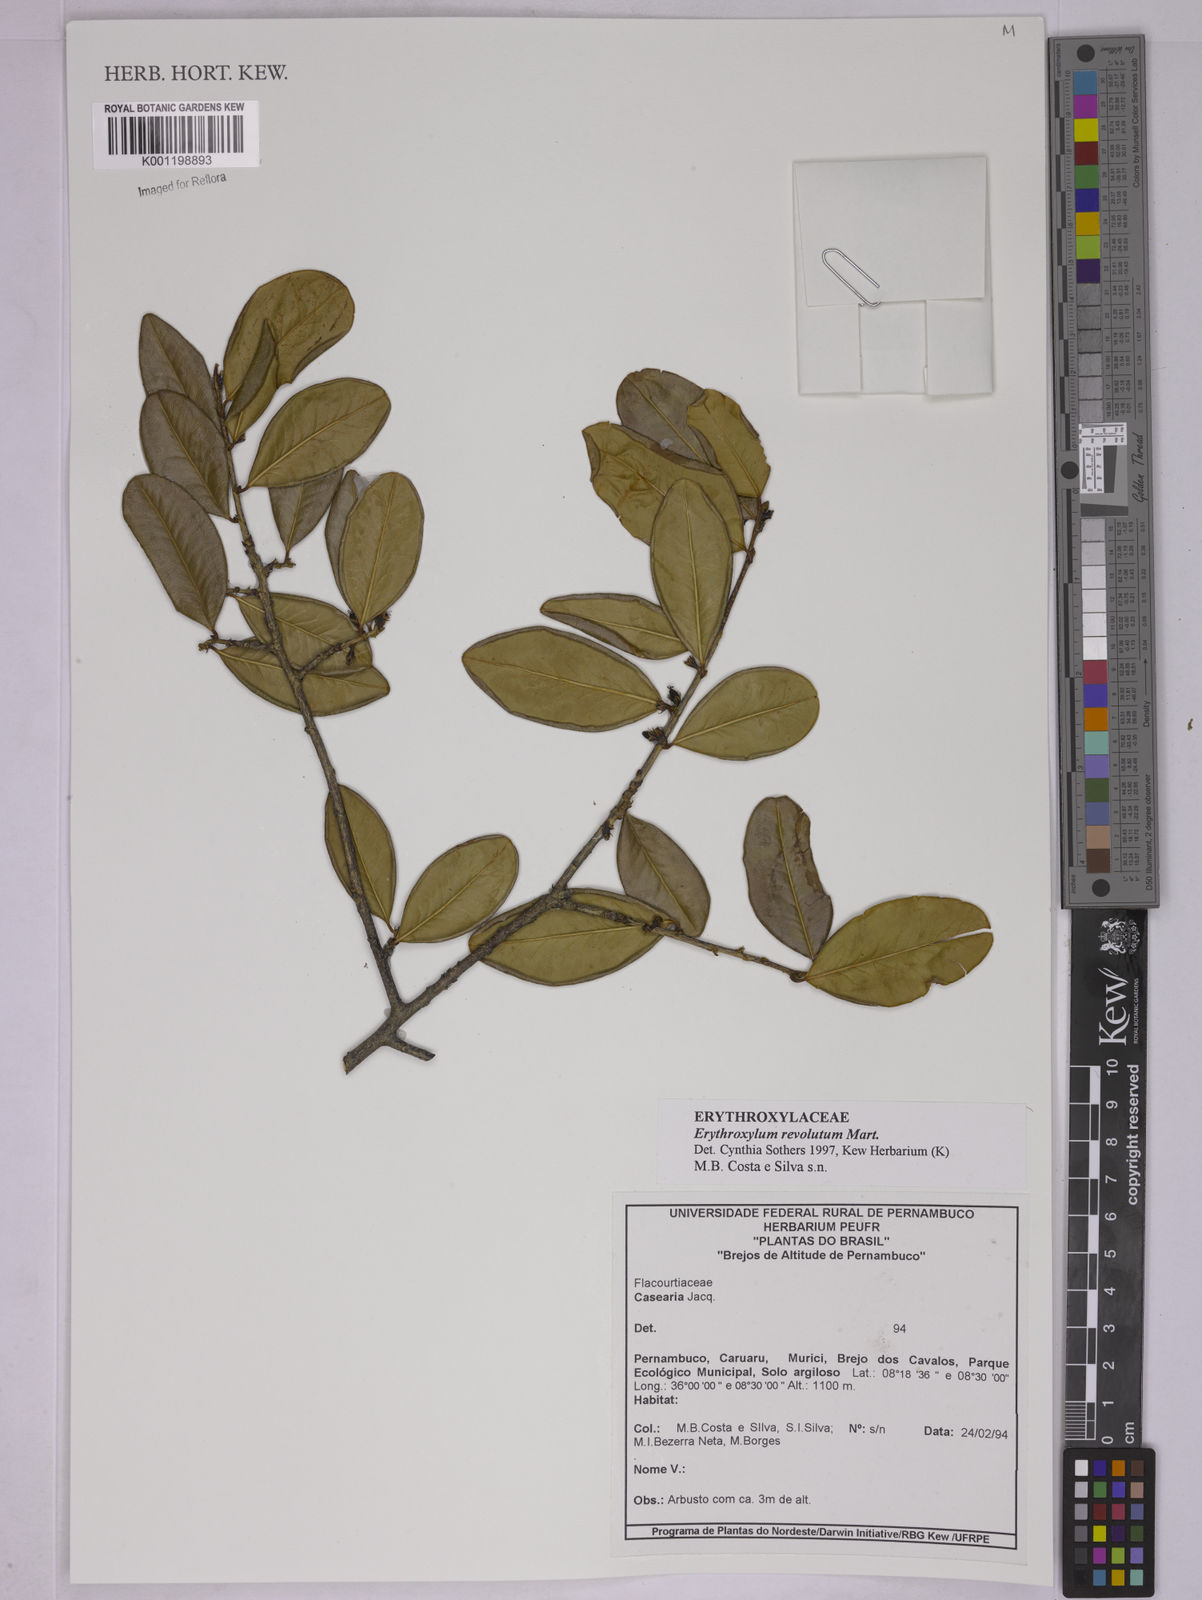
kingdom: Plantae
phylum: Tracheophyta
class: Magnoliopsida
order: Malpighiales
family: Erythroxylaceae
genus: Erythroxylum
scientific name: Erythroxylum revolutum
